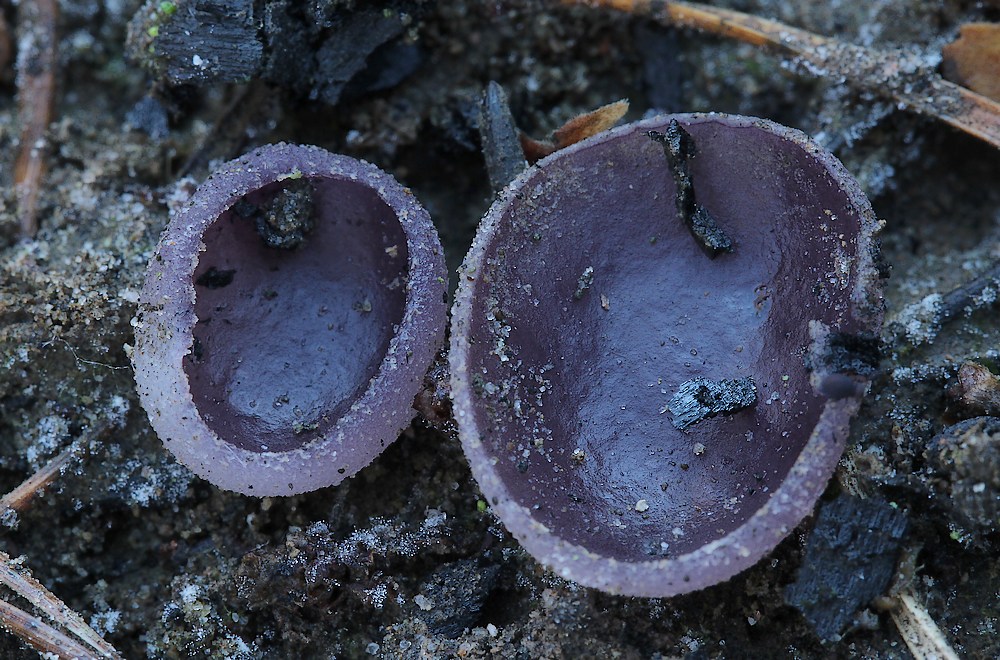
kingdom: Fungi
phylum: Ascomycota
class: Pezizomycetes
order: Pezizales
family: Pezizaceae
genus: Geoscypha
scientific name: Geoscypha tenacella
